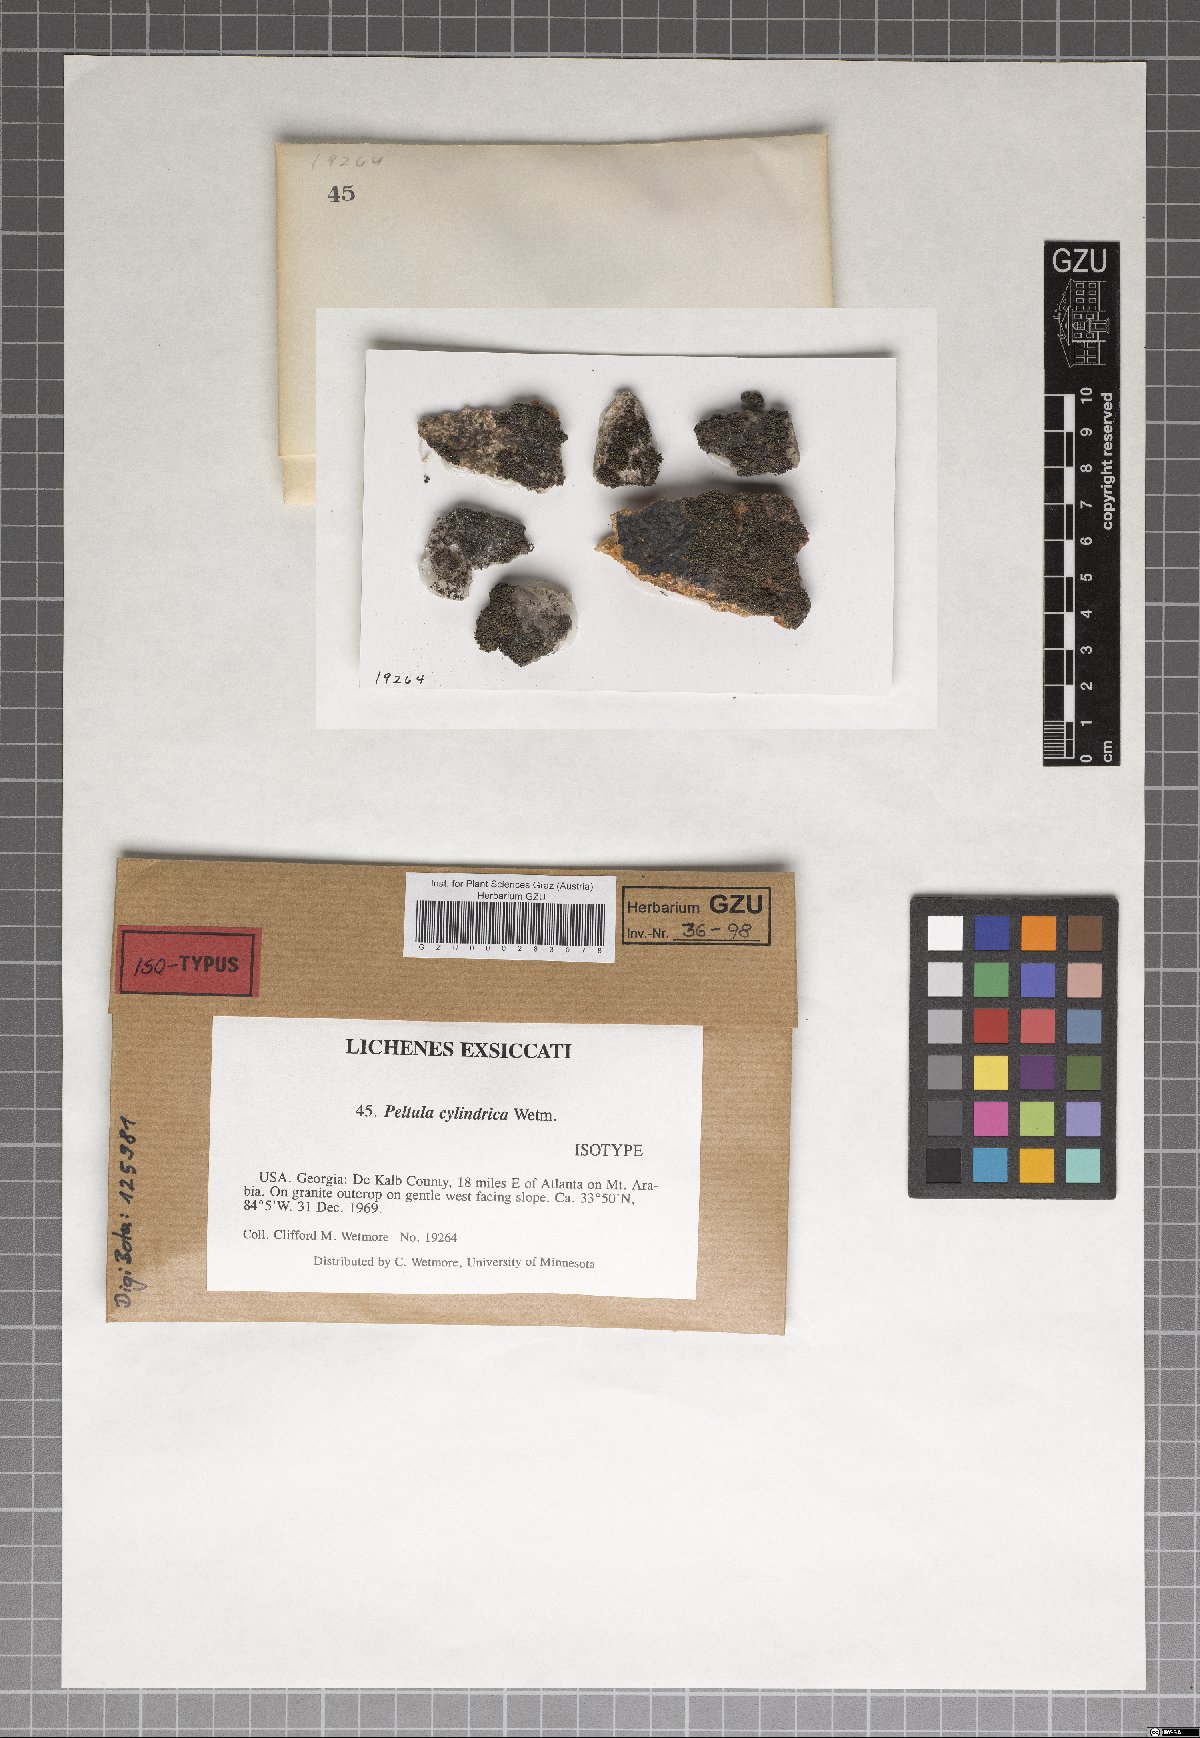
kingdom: Fungi
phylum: Ascomycota
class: Lichinomycetes
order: Lichinales
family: Peltulaceae
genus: Peltula
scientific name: Peltula cylindrica
